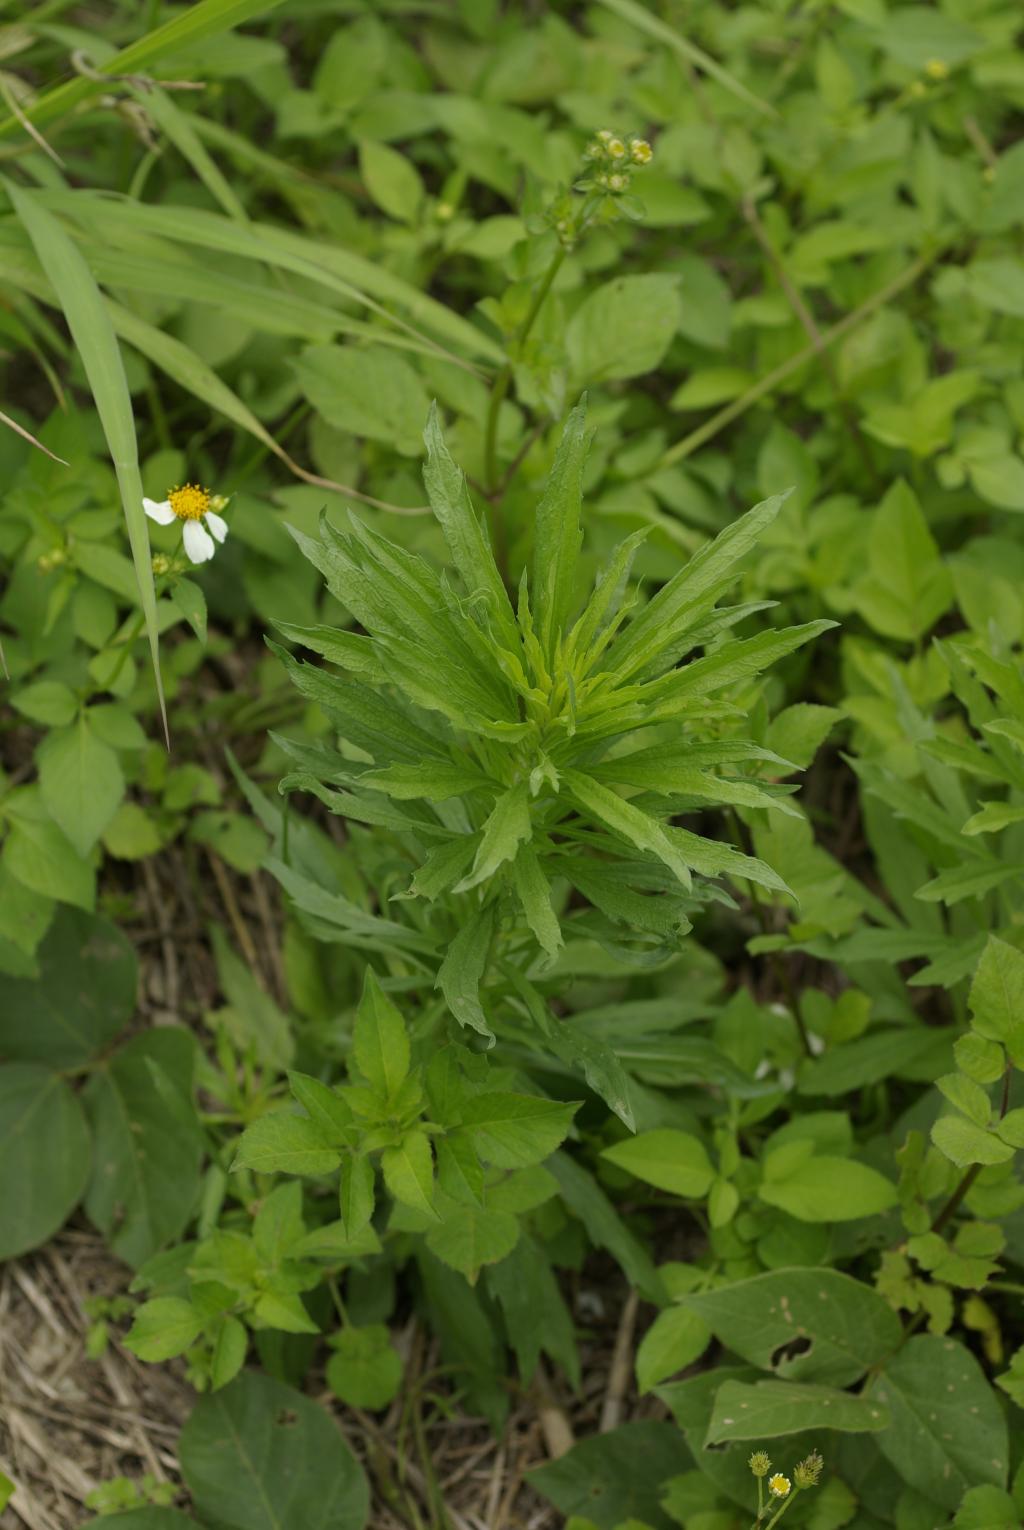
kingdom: Plantae
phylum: Tracheophyta
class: Magnoliopsida
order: Asterales
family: Asteraceae
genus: Erigeron
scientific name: Erigeron bonariensis
